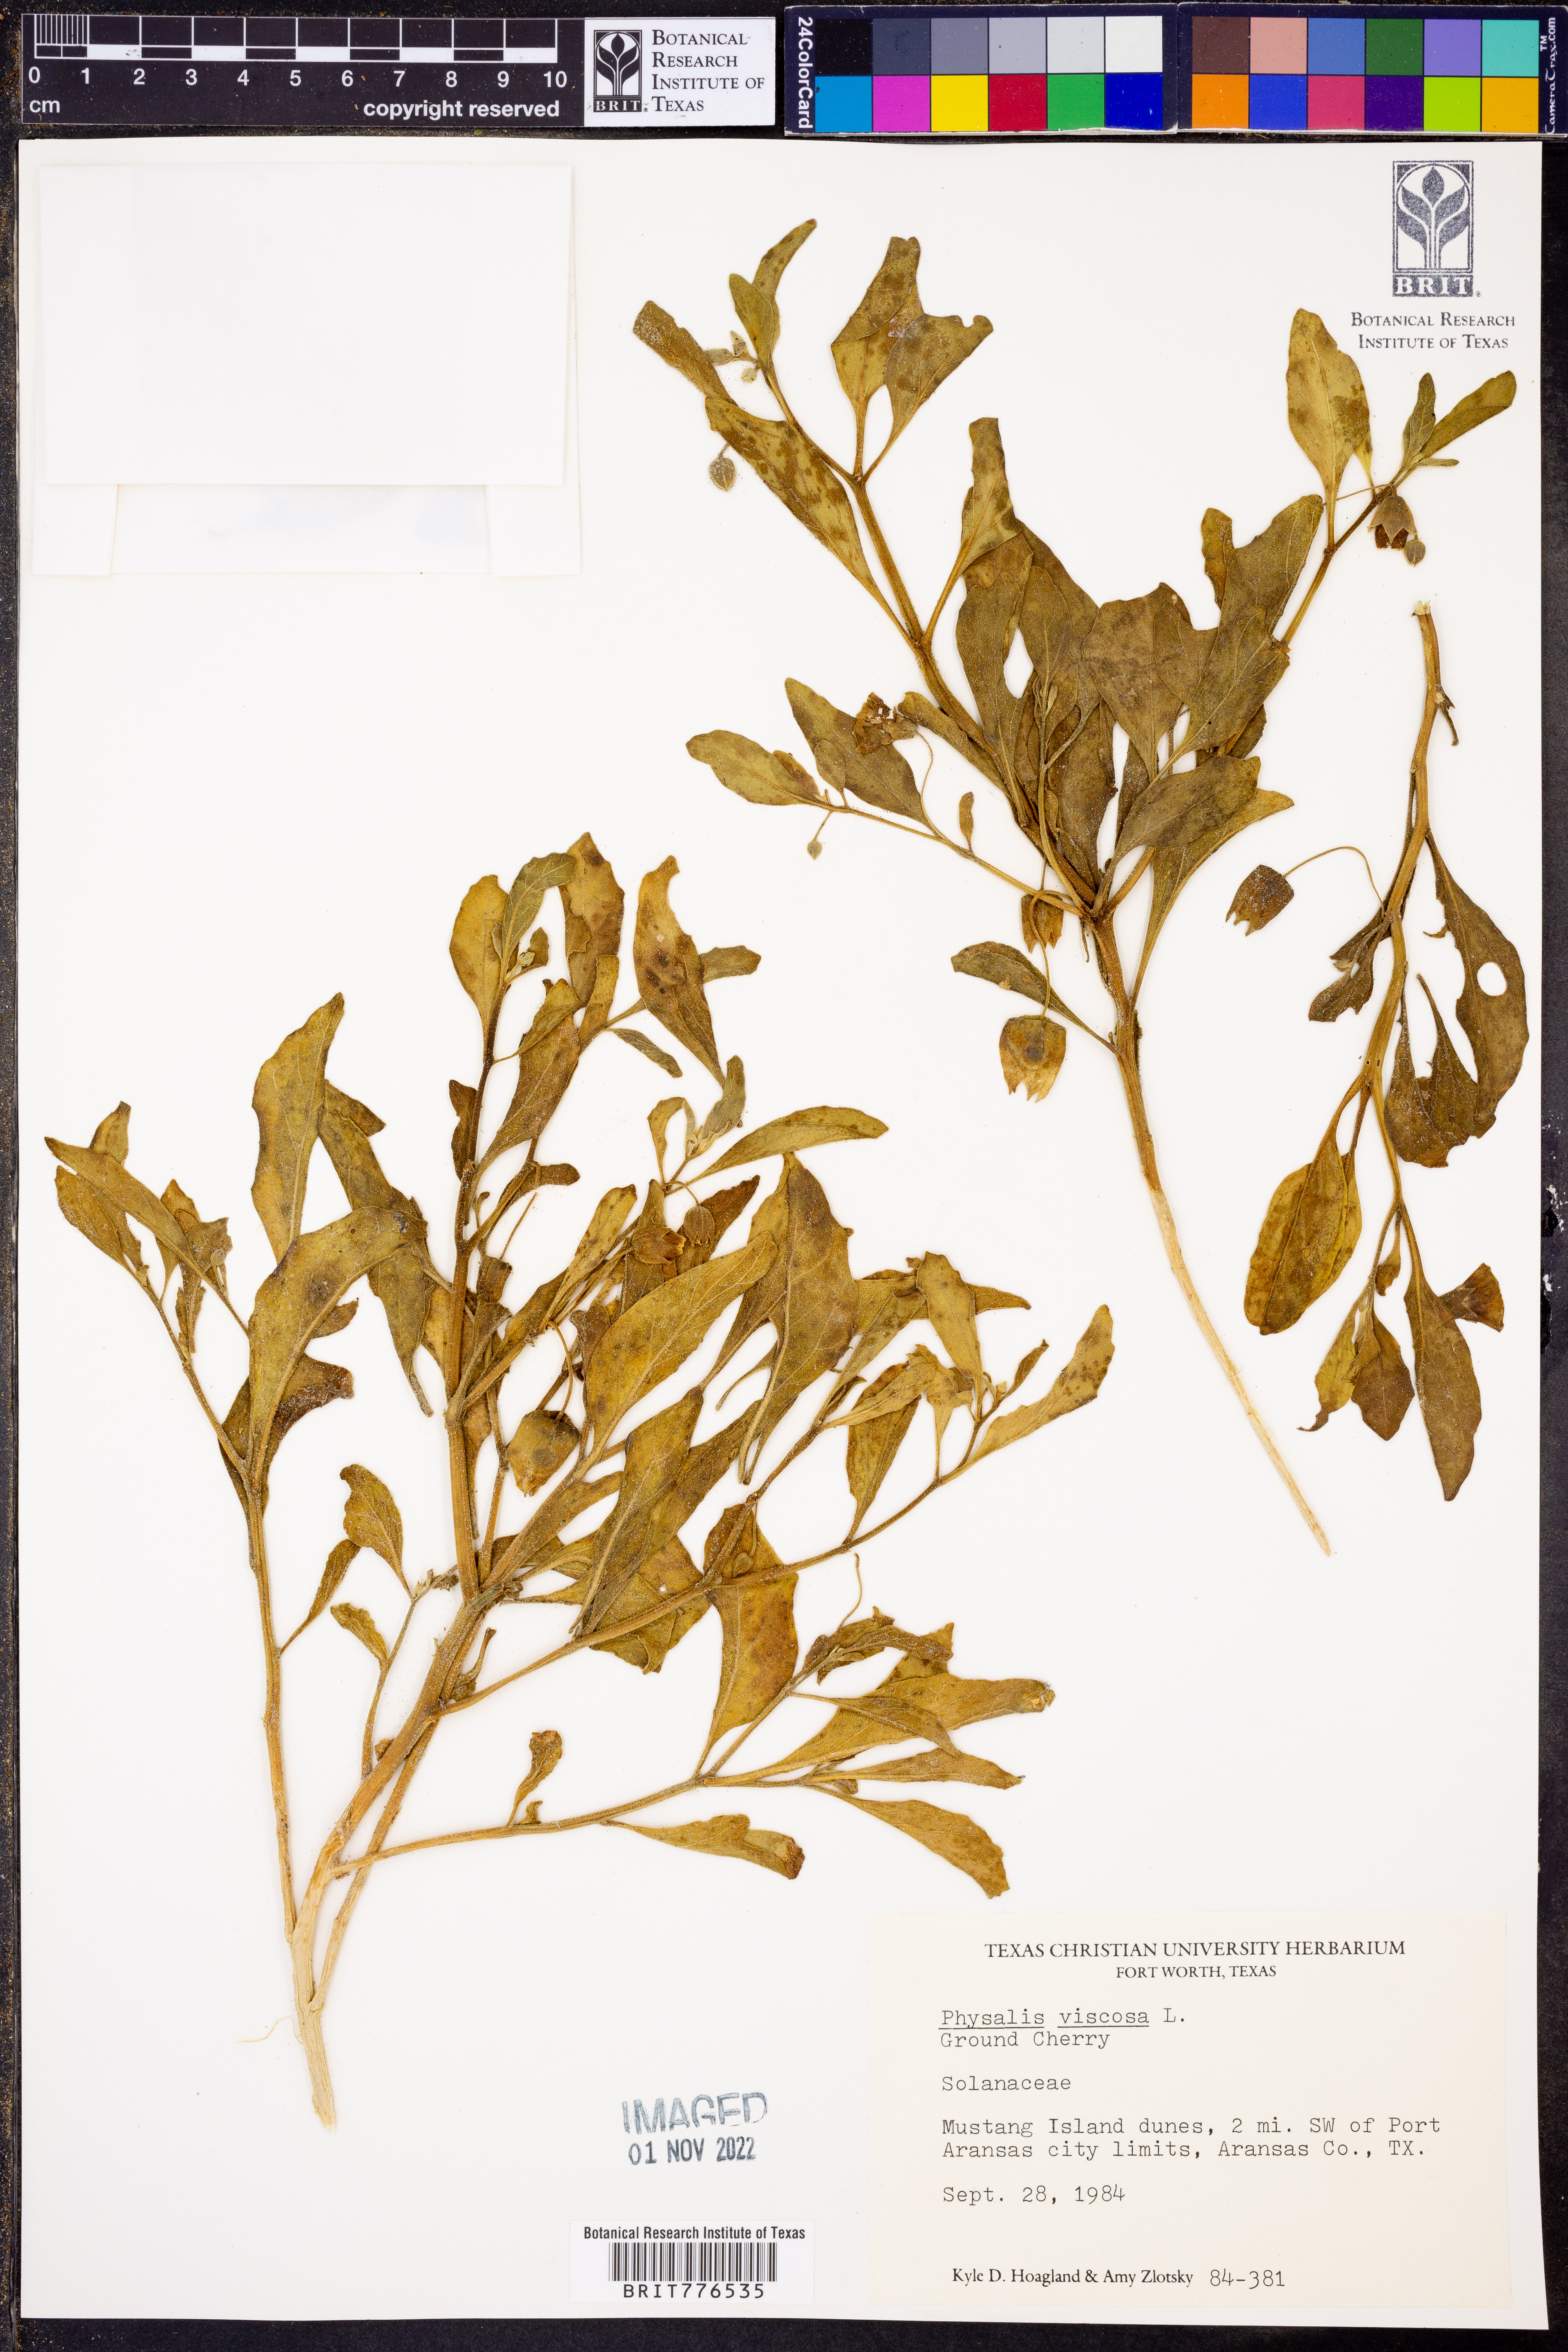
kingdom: Plantae
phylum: Tracheophyta
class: Magnoliopsida
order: Solanales
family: Solanaceae
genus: Physalis
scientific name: Physalis viscosa
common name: Stellate ground-cherry
